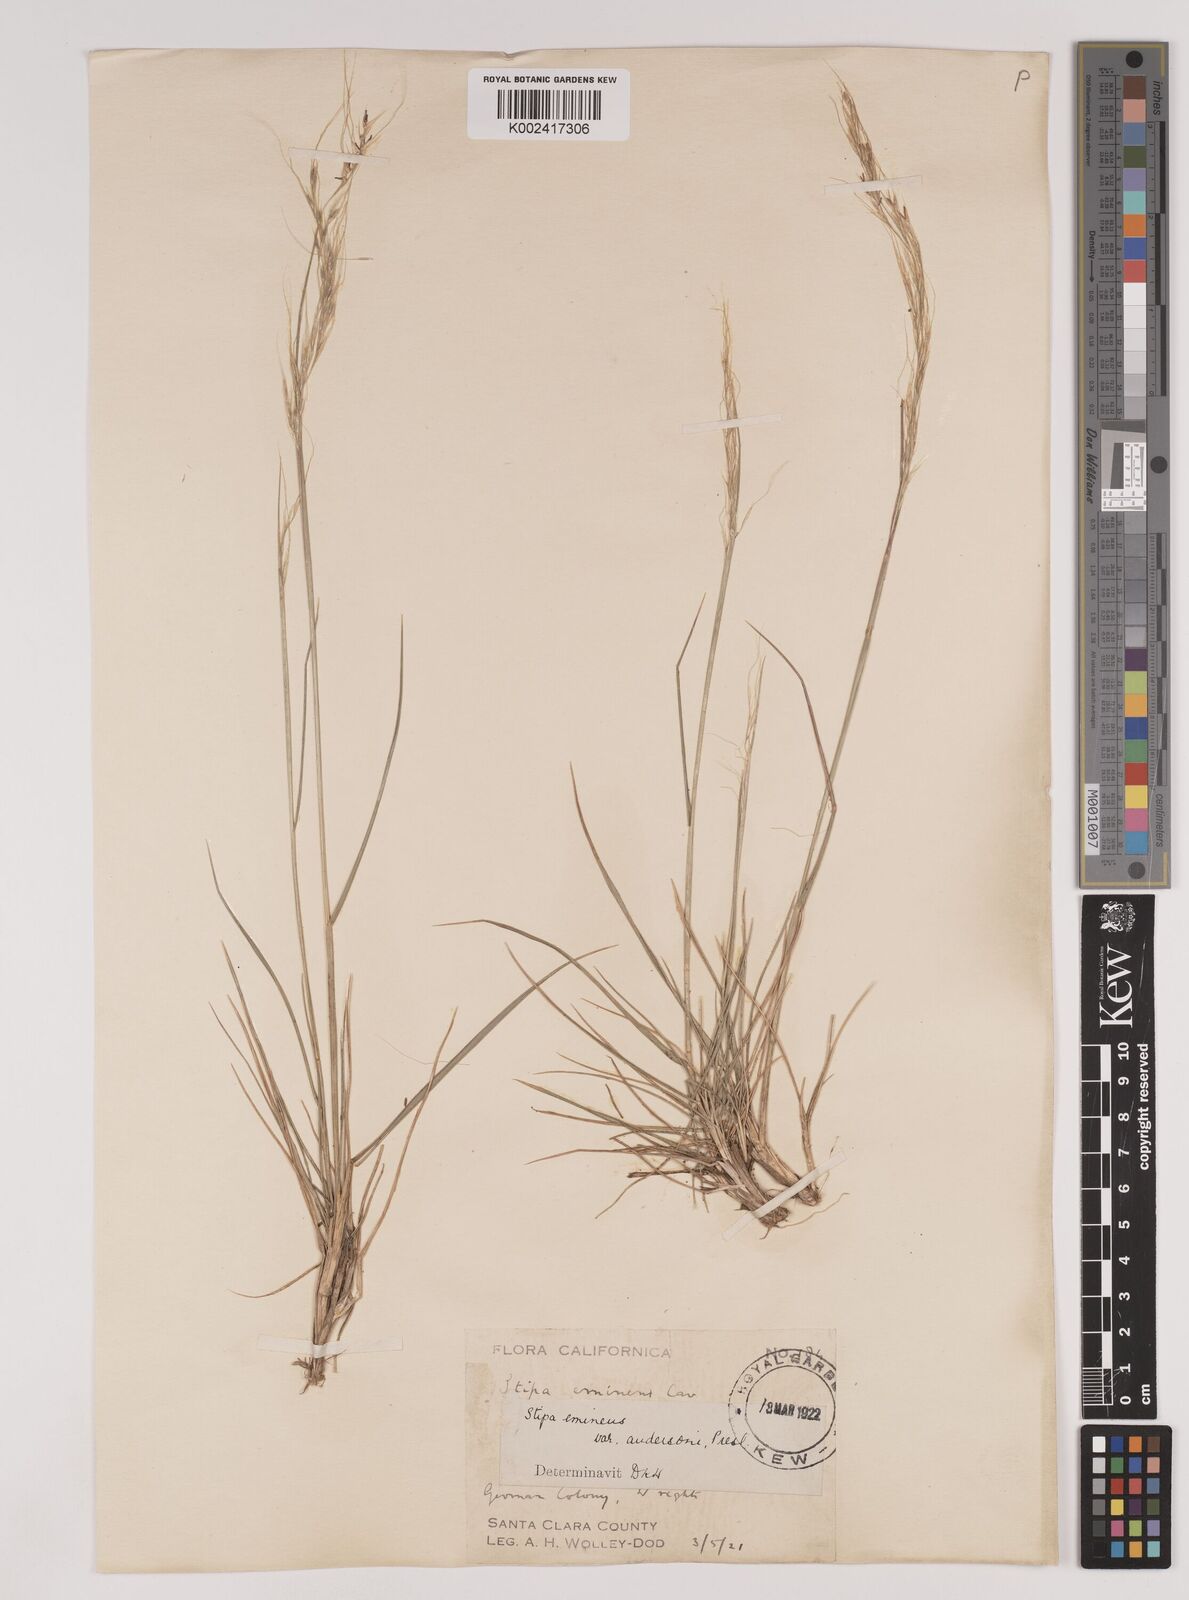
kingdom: Plantae
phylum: Tracheophyta
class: Liliopsida
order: Poales
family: Poaceae
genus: Nassella
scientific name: Nassella lepida
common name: Foothill needlegrass
